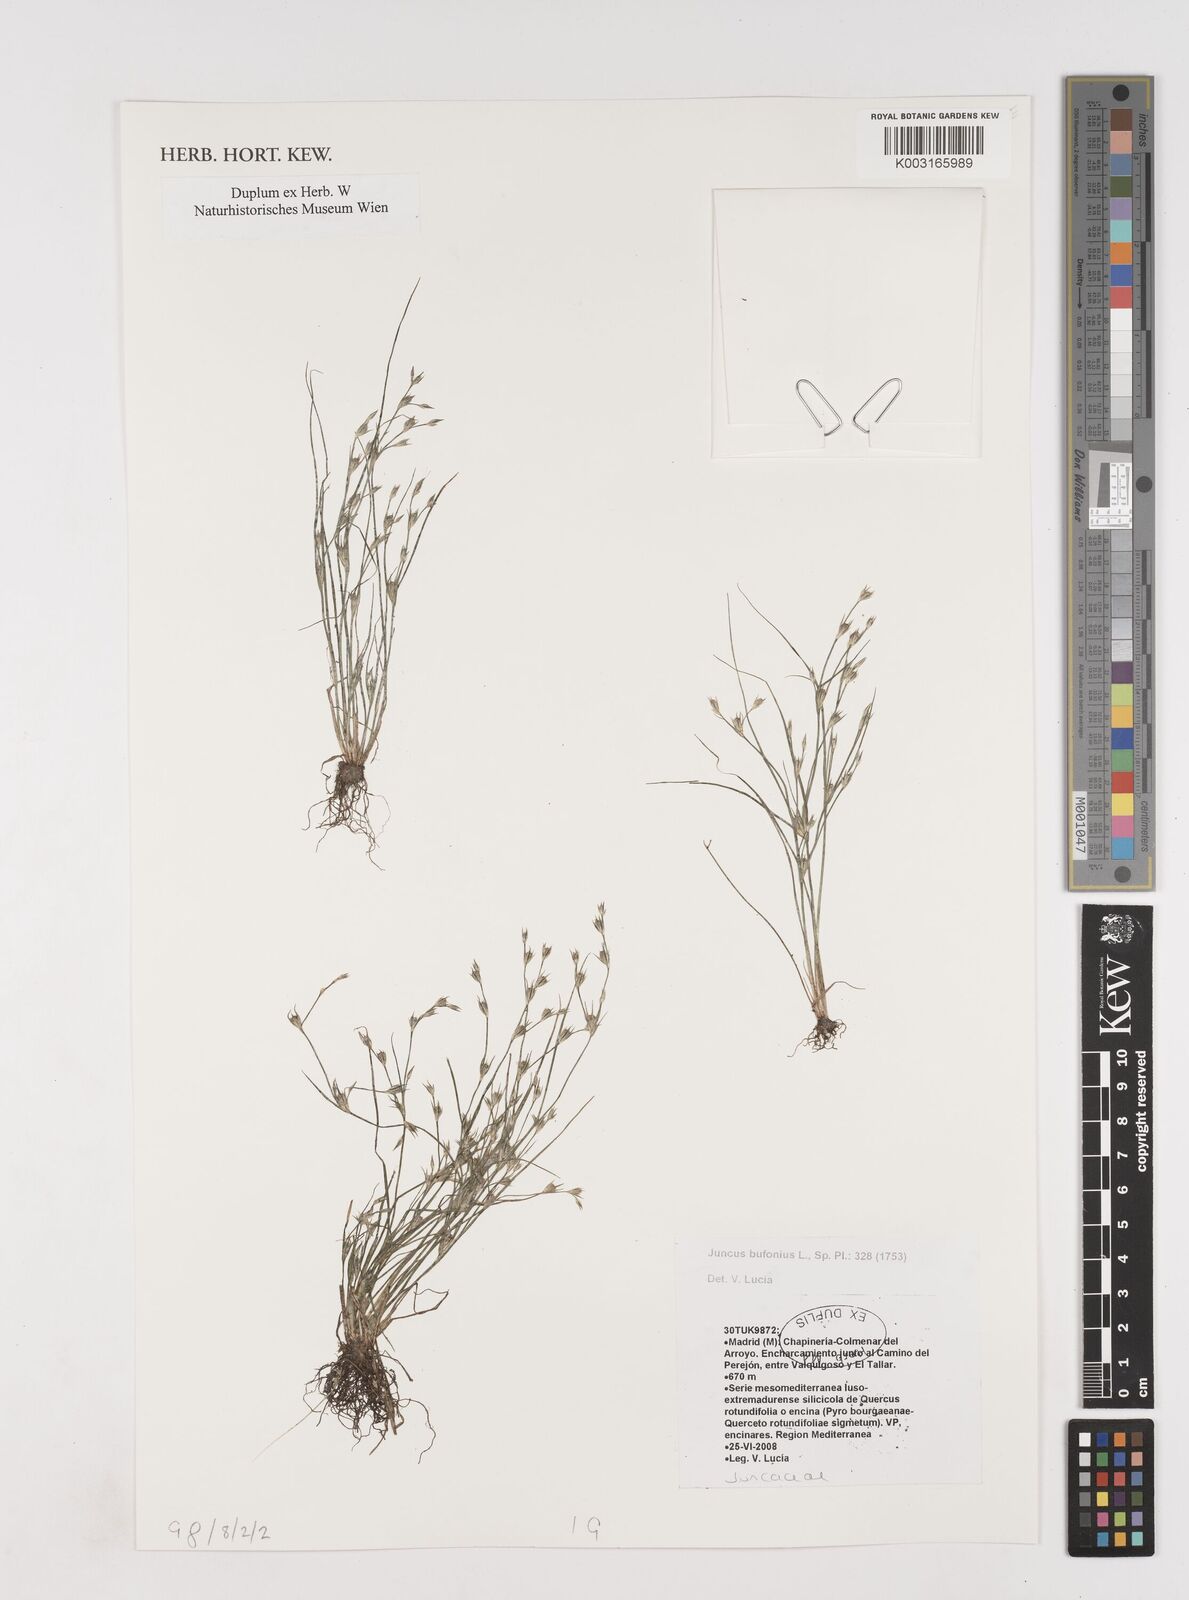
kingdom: Plantae
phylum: Tracheophyta
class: Liliopsida
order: Poales
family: Juncaceae
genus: Juncus
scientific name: Juncus bufonius
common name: Toad rush
